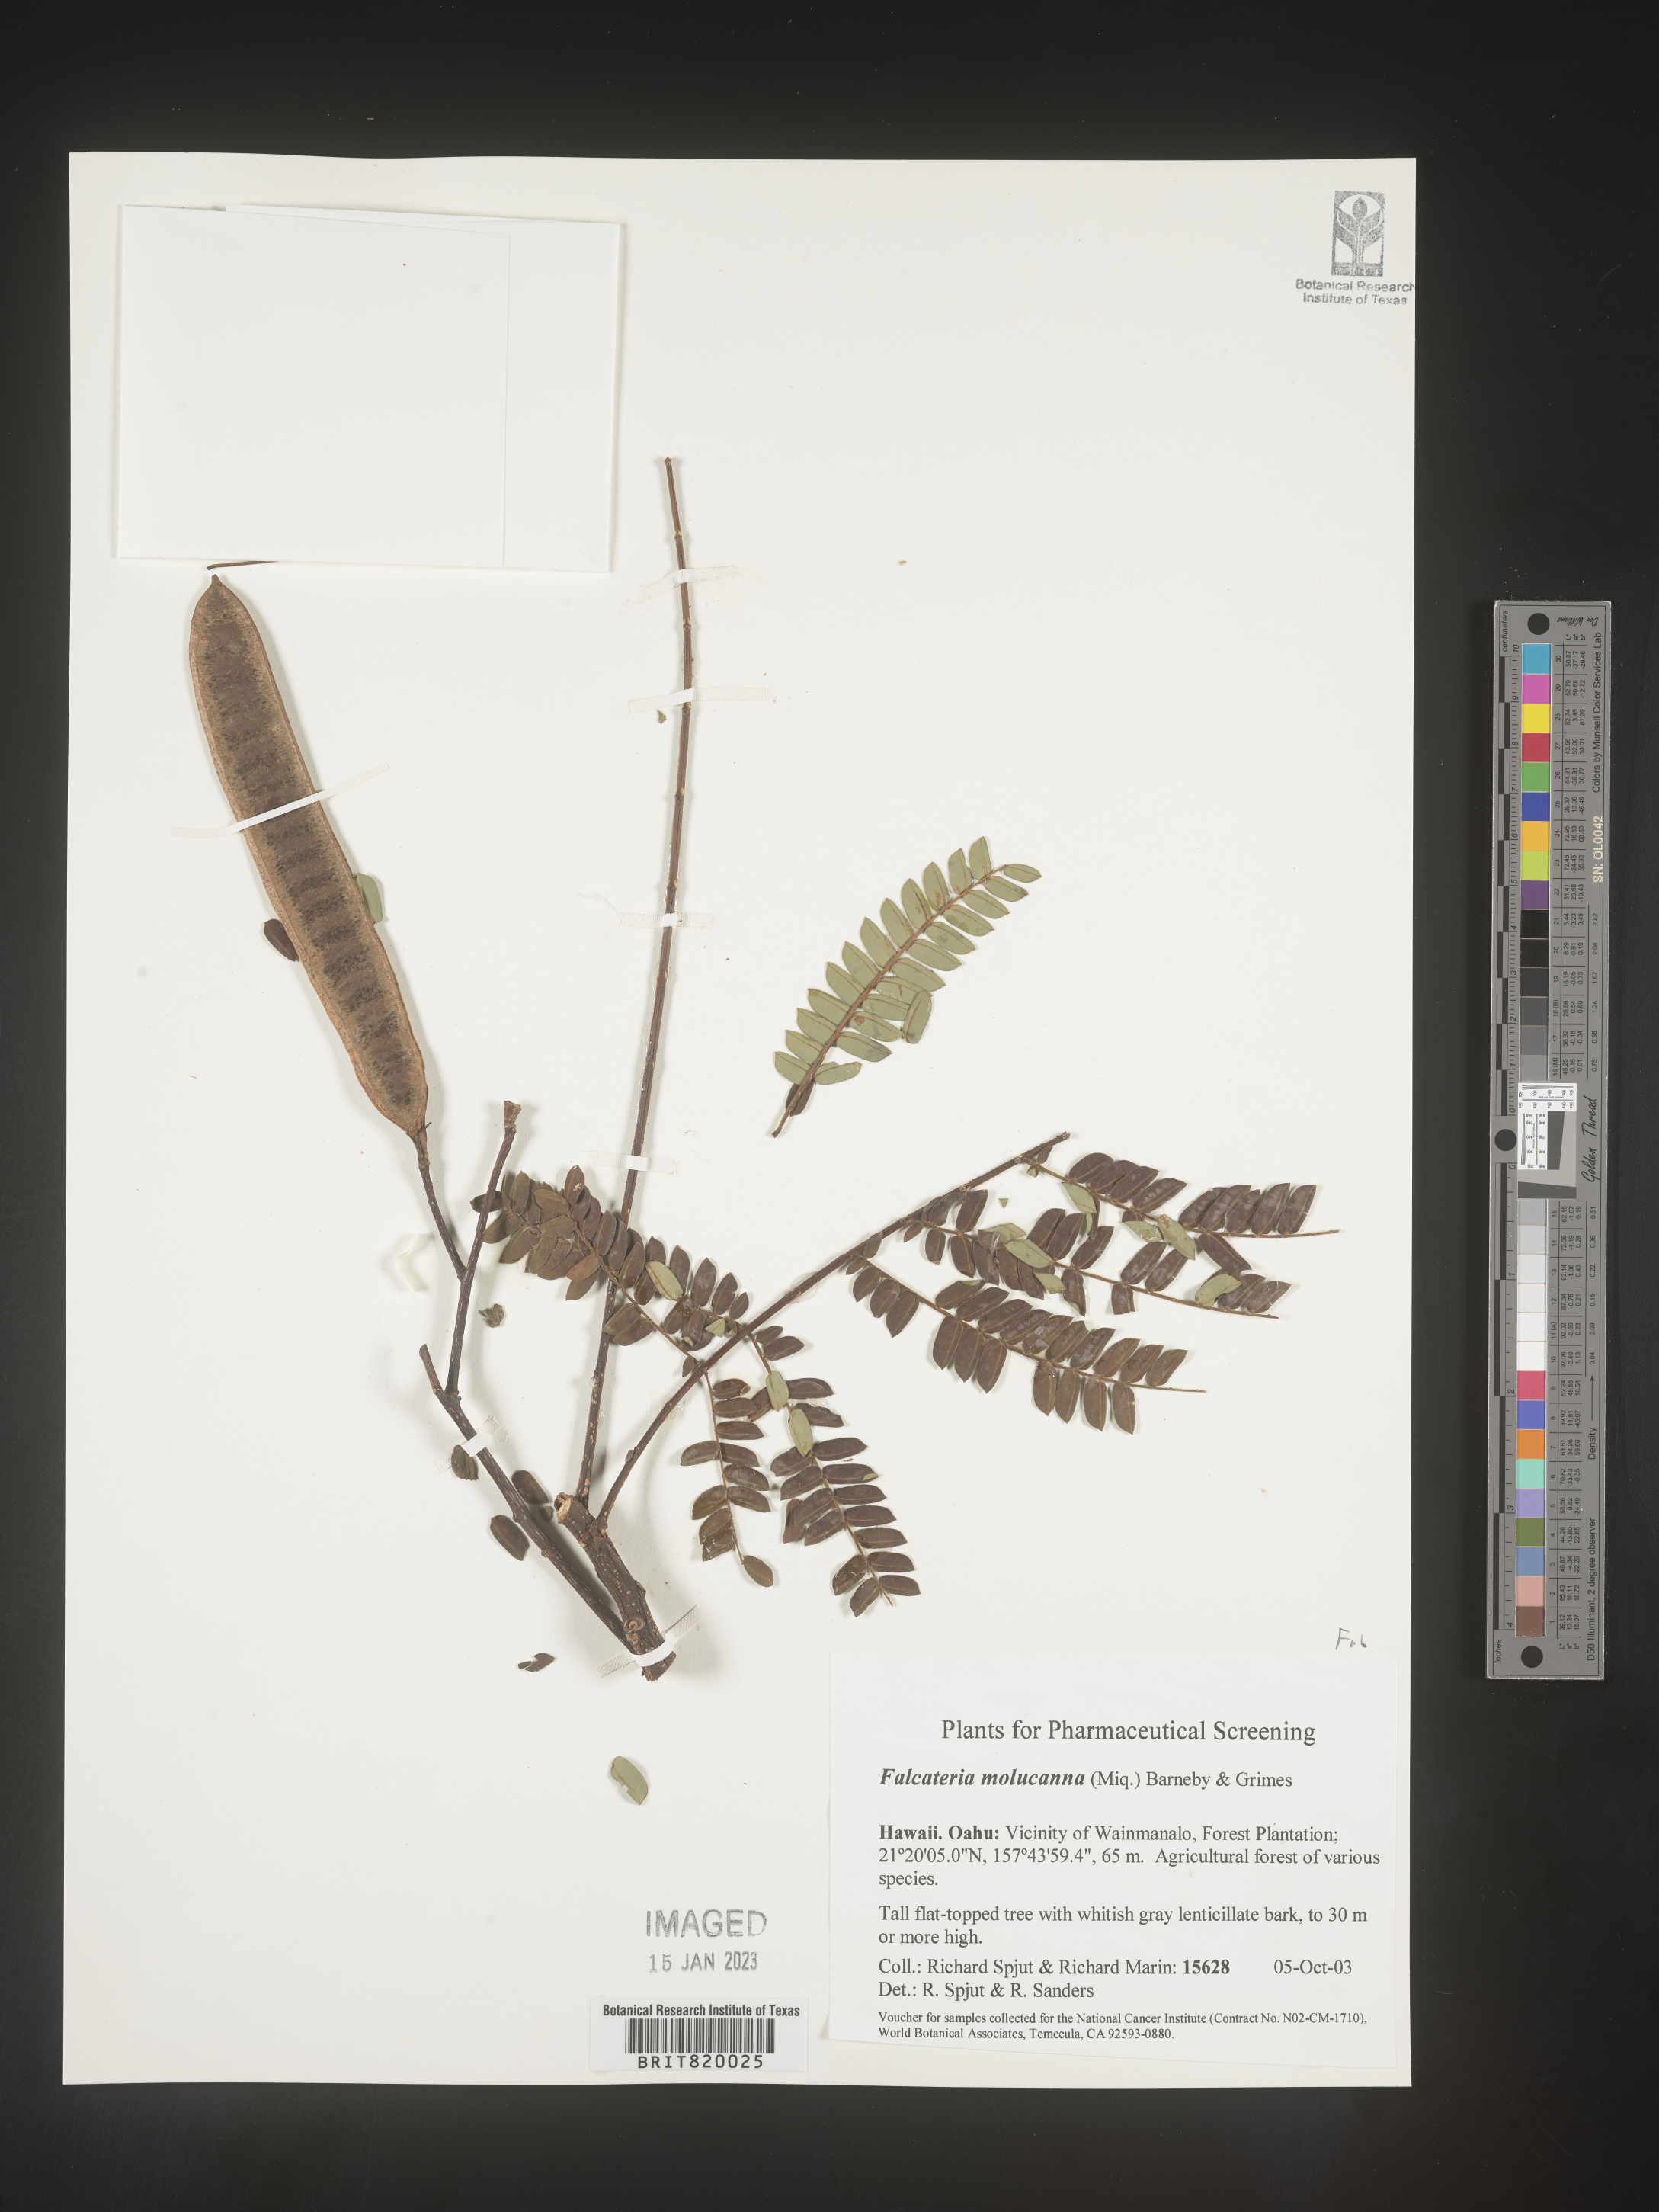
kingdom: Plantae
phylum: Tracheophyta
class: Magnoliopsida
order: Fabales
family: Fabaceae
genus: Falcataria
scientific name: Falcataria
